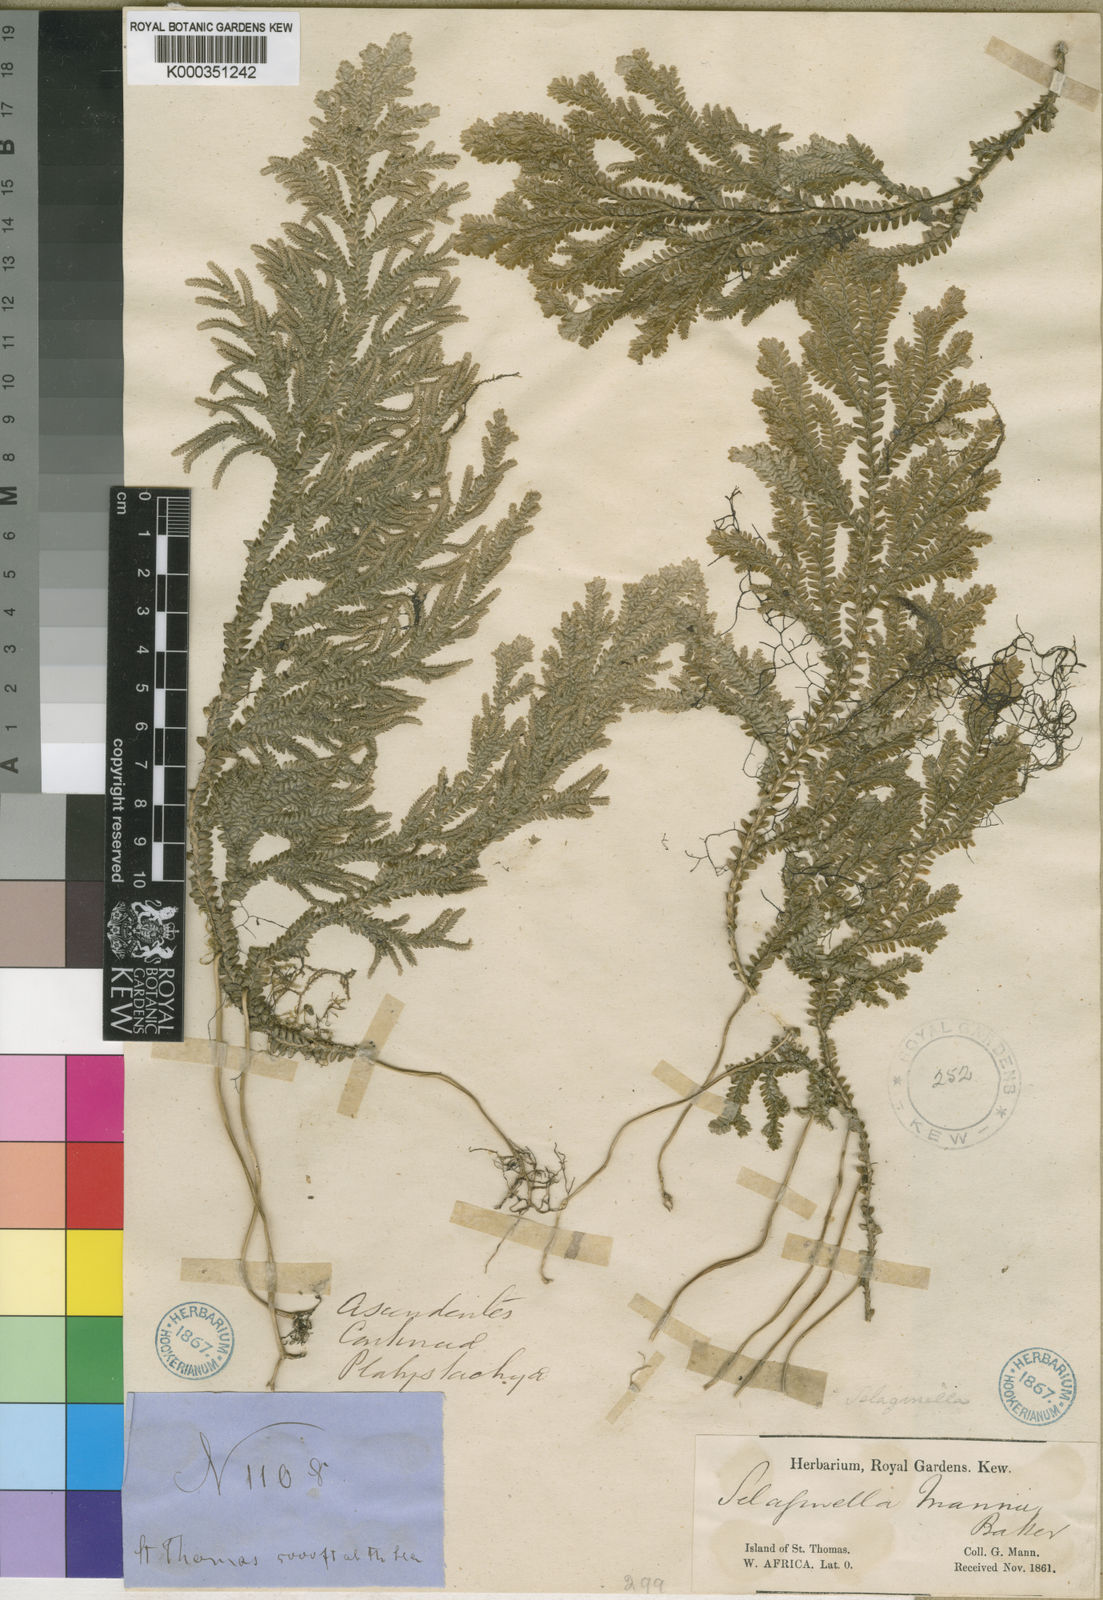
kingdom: Plantae
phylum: Tracheophyta
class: Lycopodiopsida
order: Selaginellales
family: Selaginellaceae
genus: Selaginella
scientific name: Selaginella mannii
